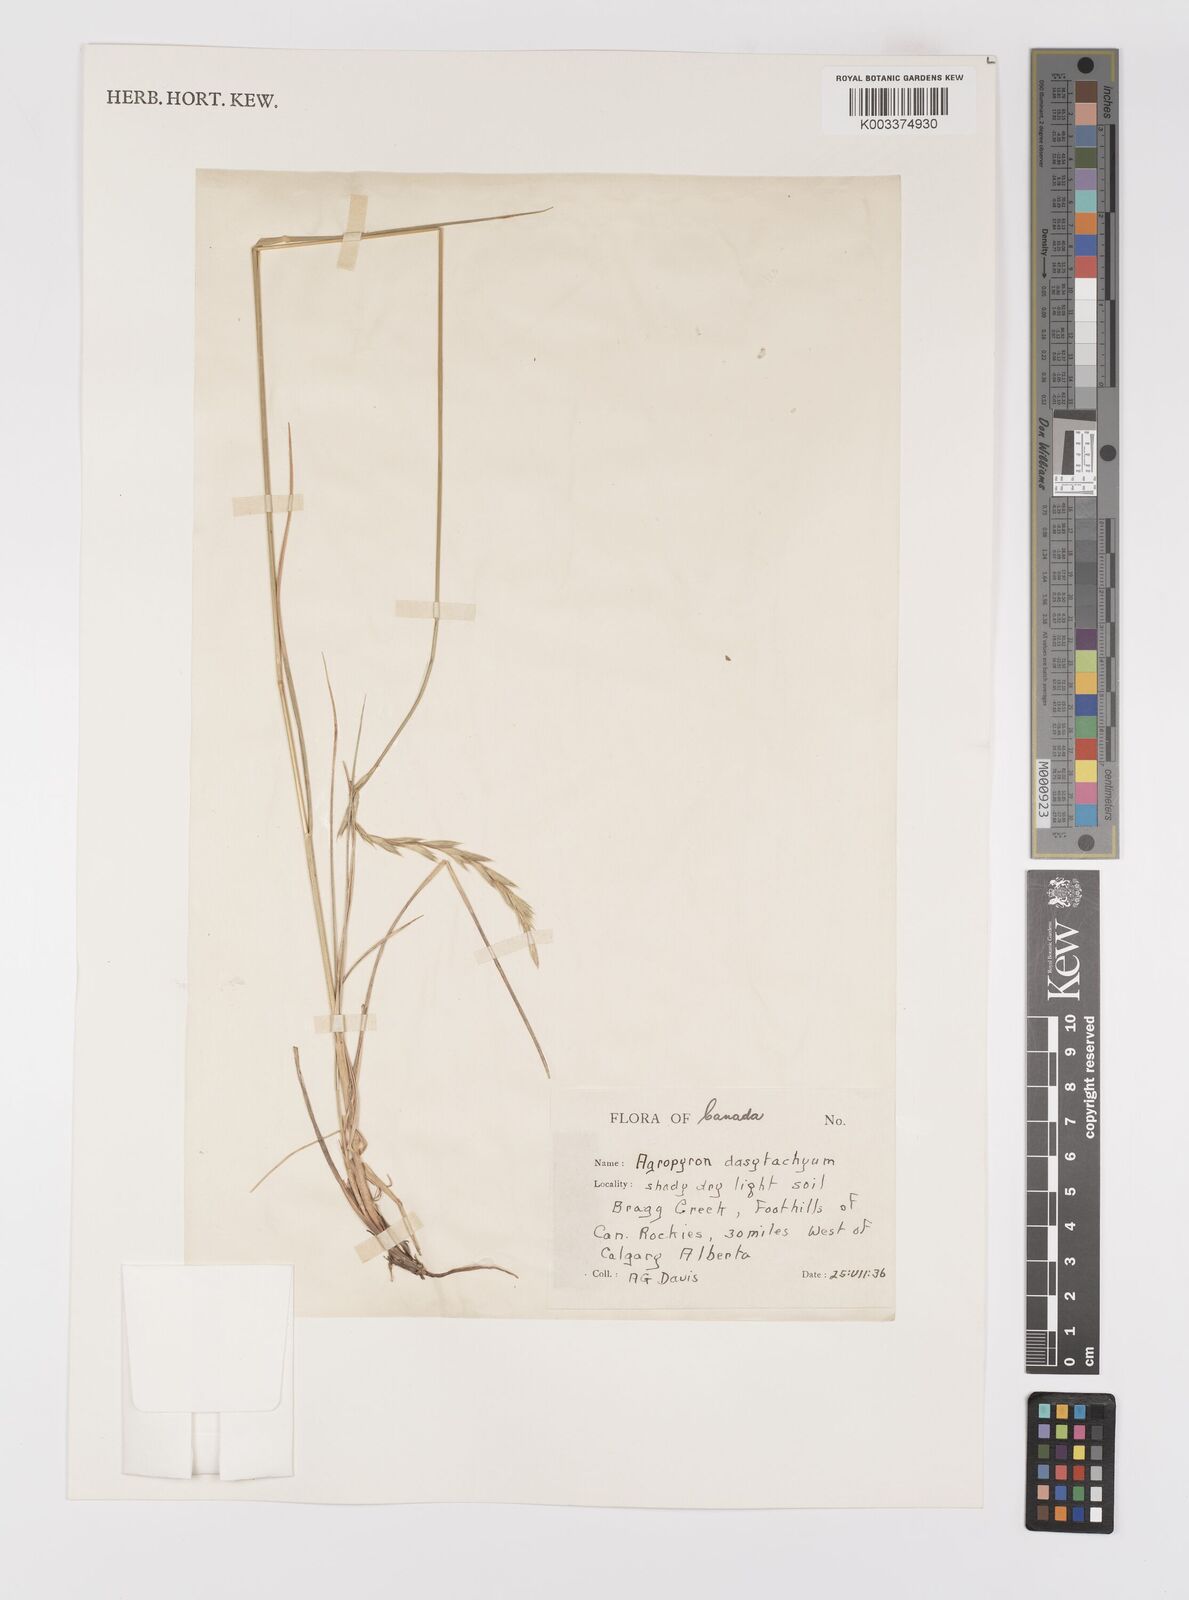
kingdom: Plantae
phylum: Tracheophyta
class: Liliopsida
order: Poales
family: Poaceae
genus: Elymus
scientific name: Elymus lanceolatus
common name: Thick-spike wheatgrass
